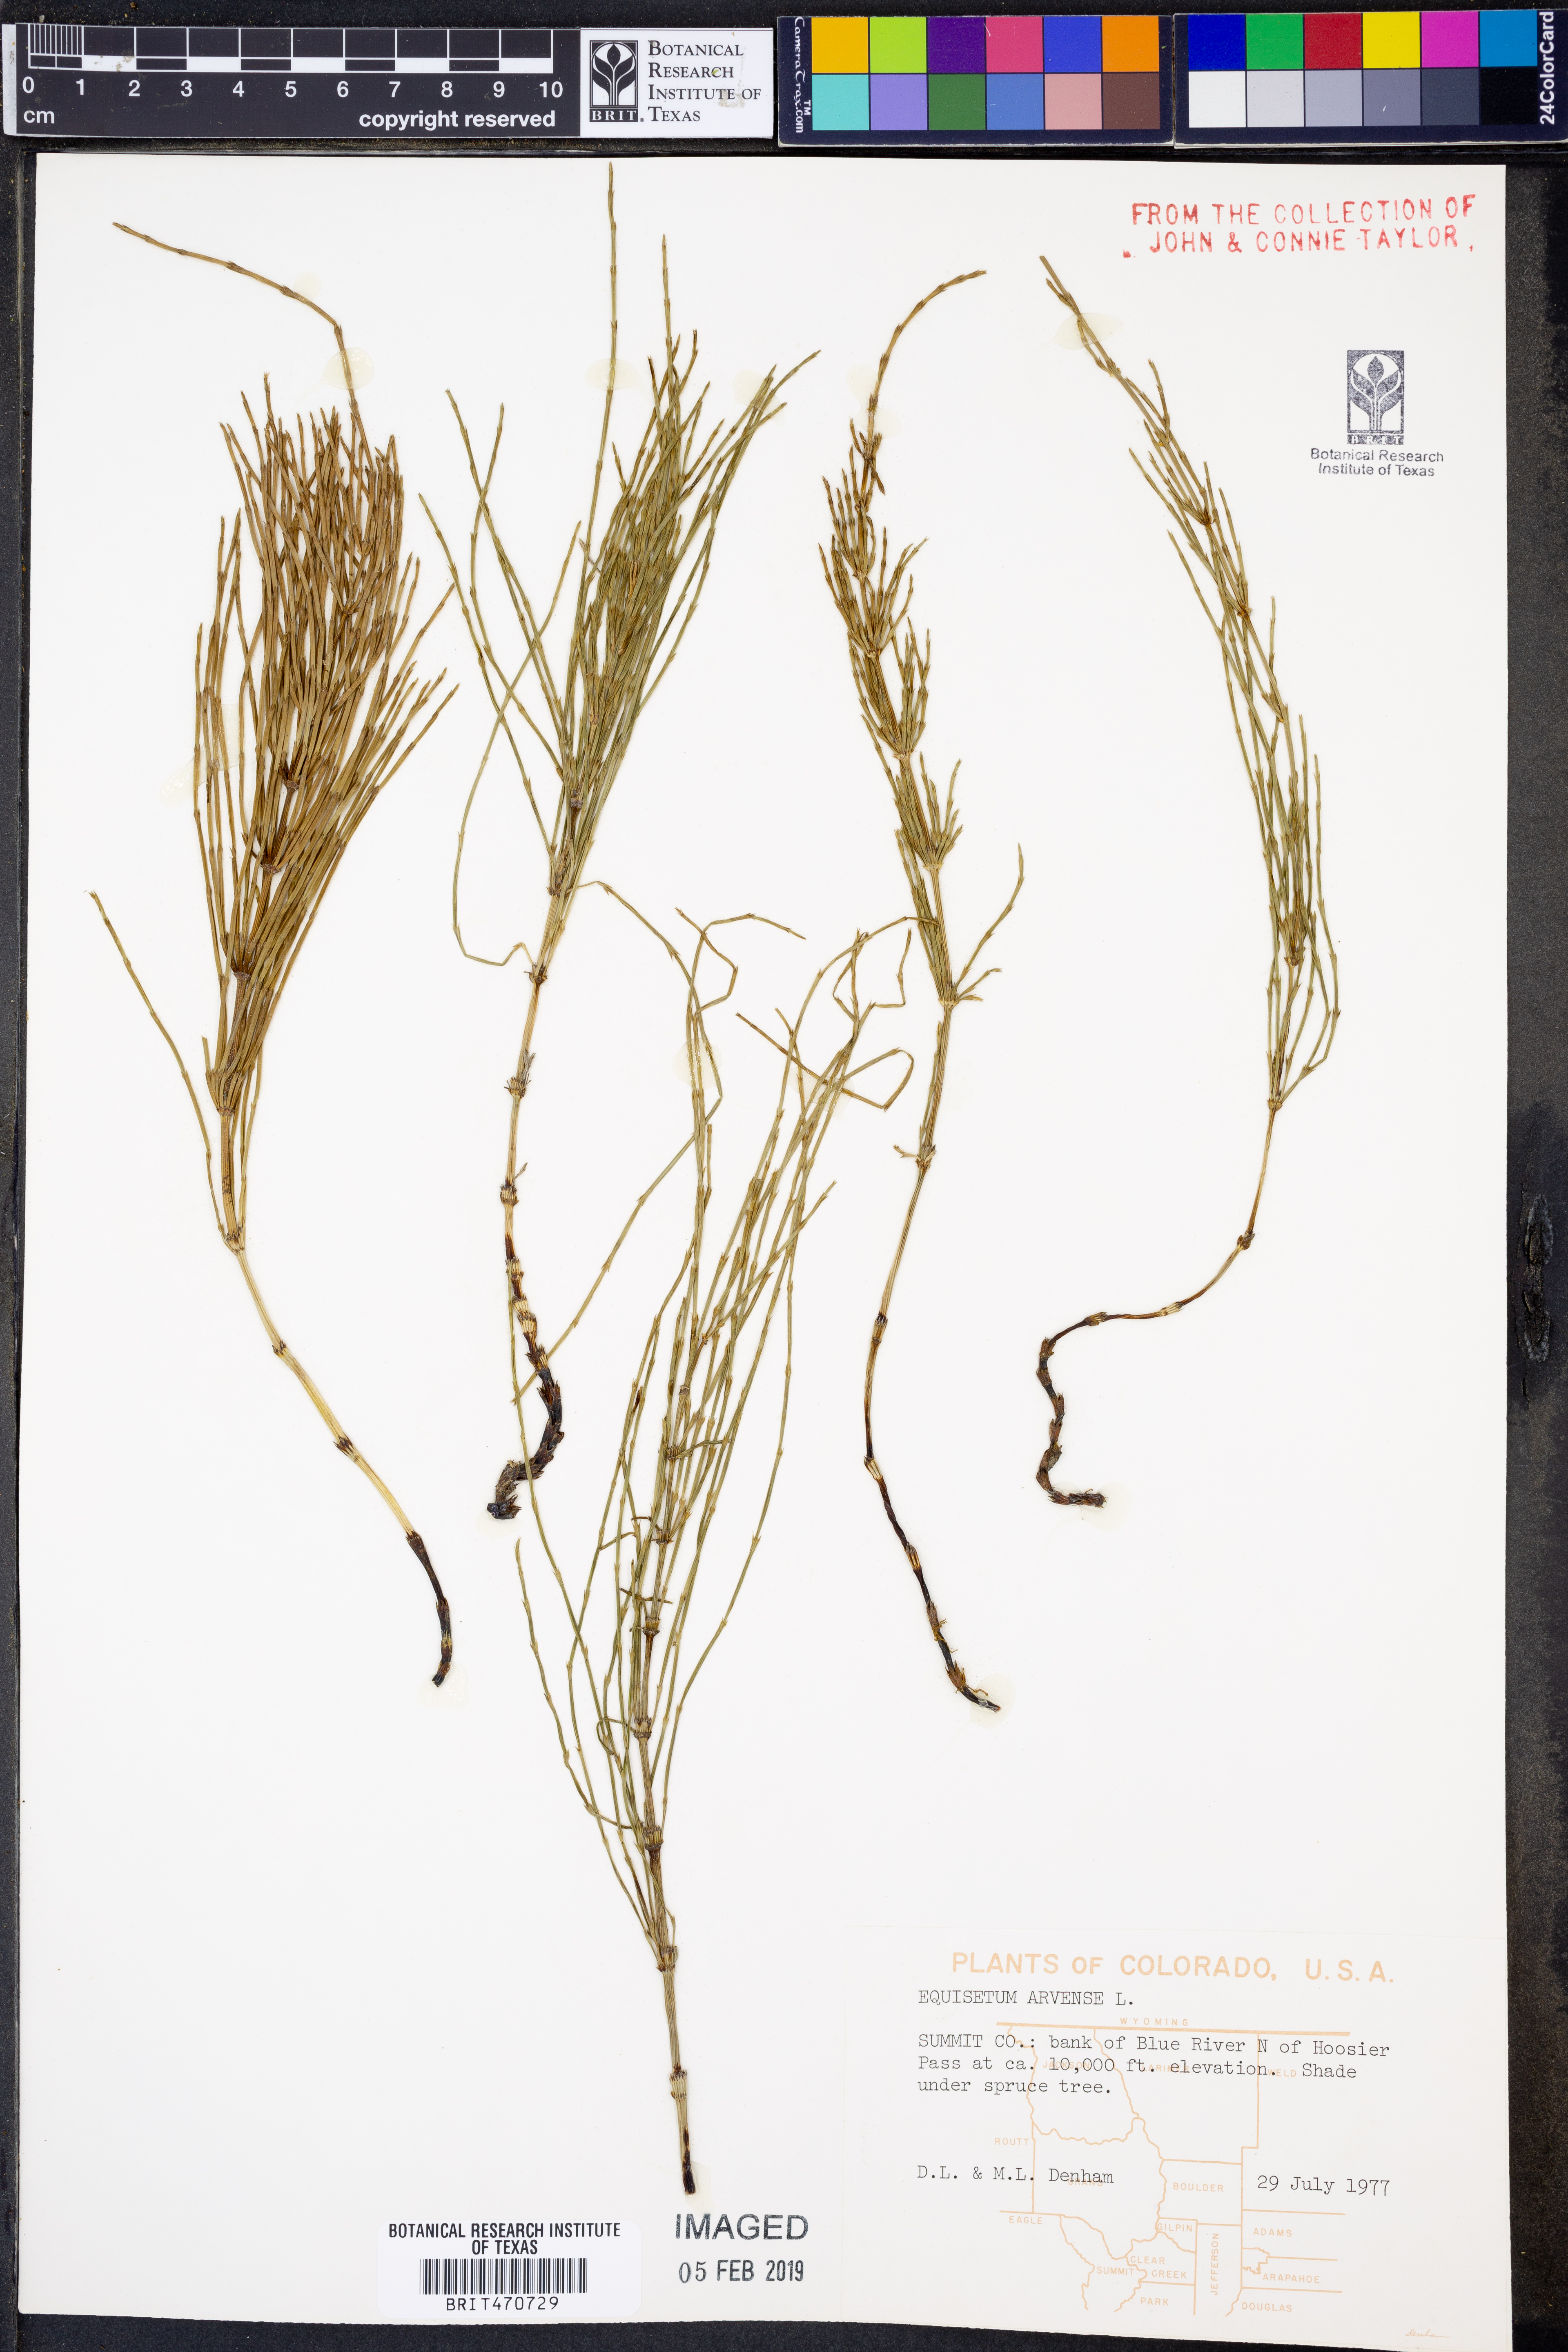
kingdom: Plantae
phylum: Tracheophyta
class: Polypodiopsida
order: Equisetales
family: Equisetaceae
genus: Equisetum
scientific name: Equisetum arvense
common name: Field horsetail
